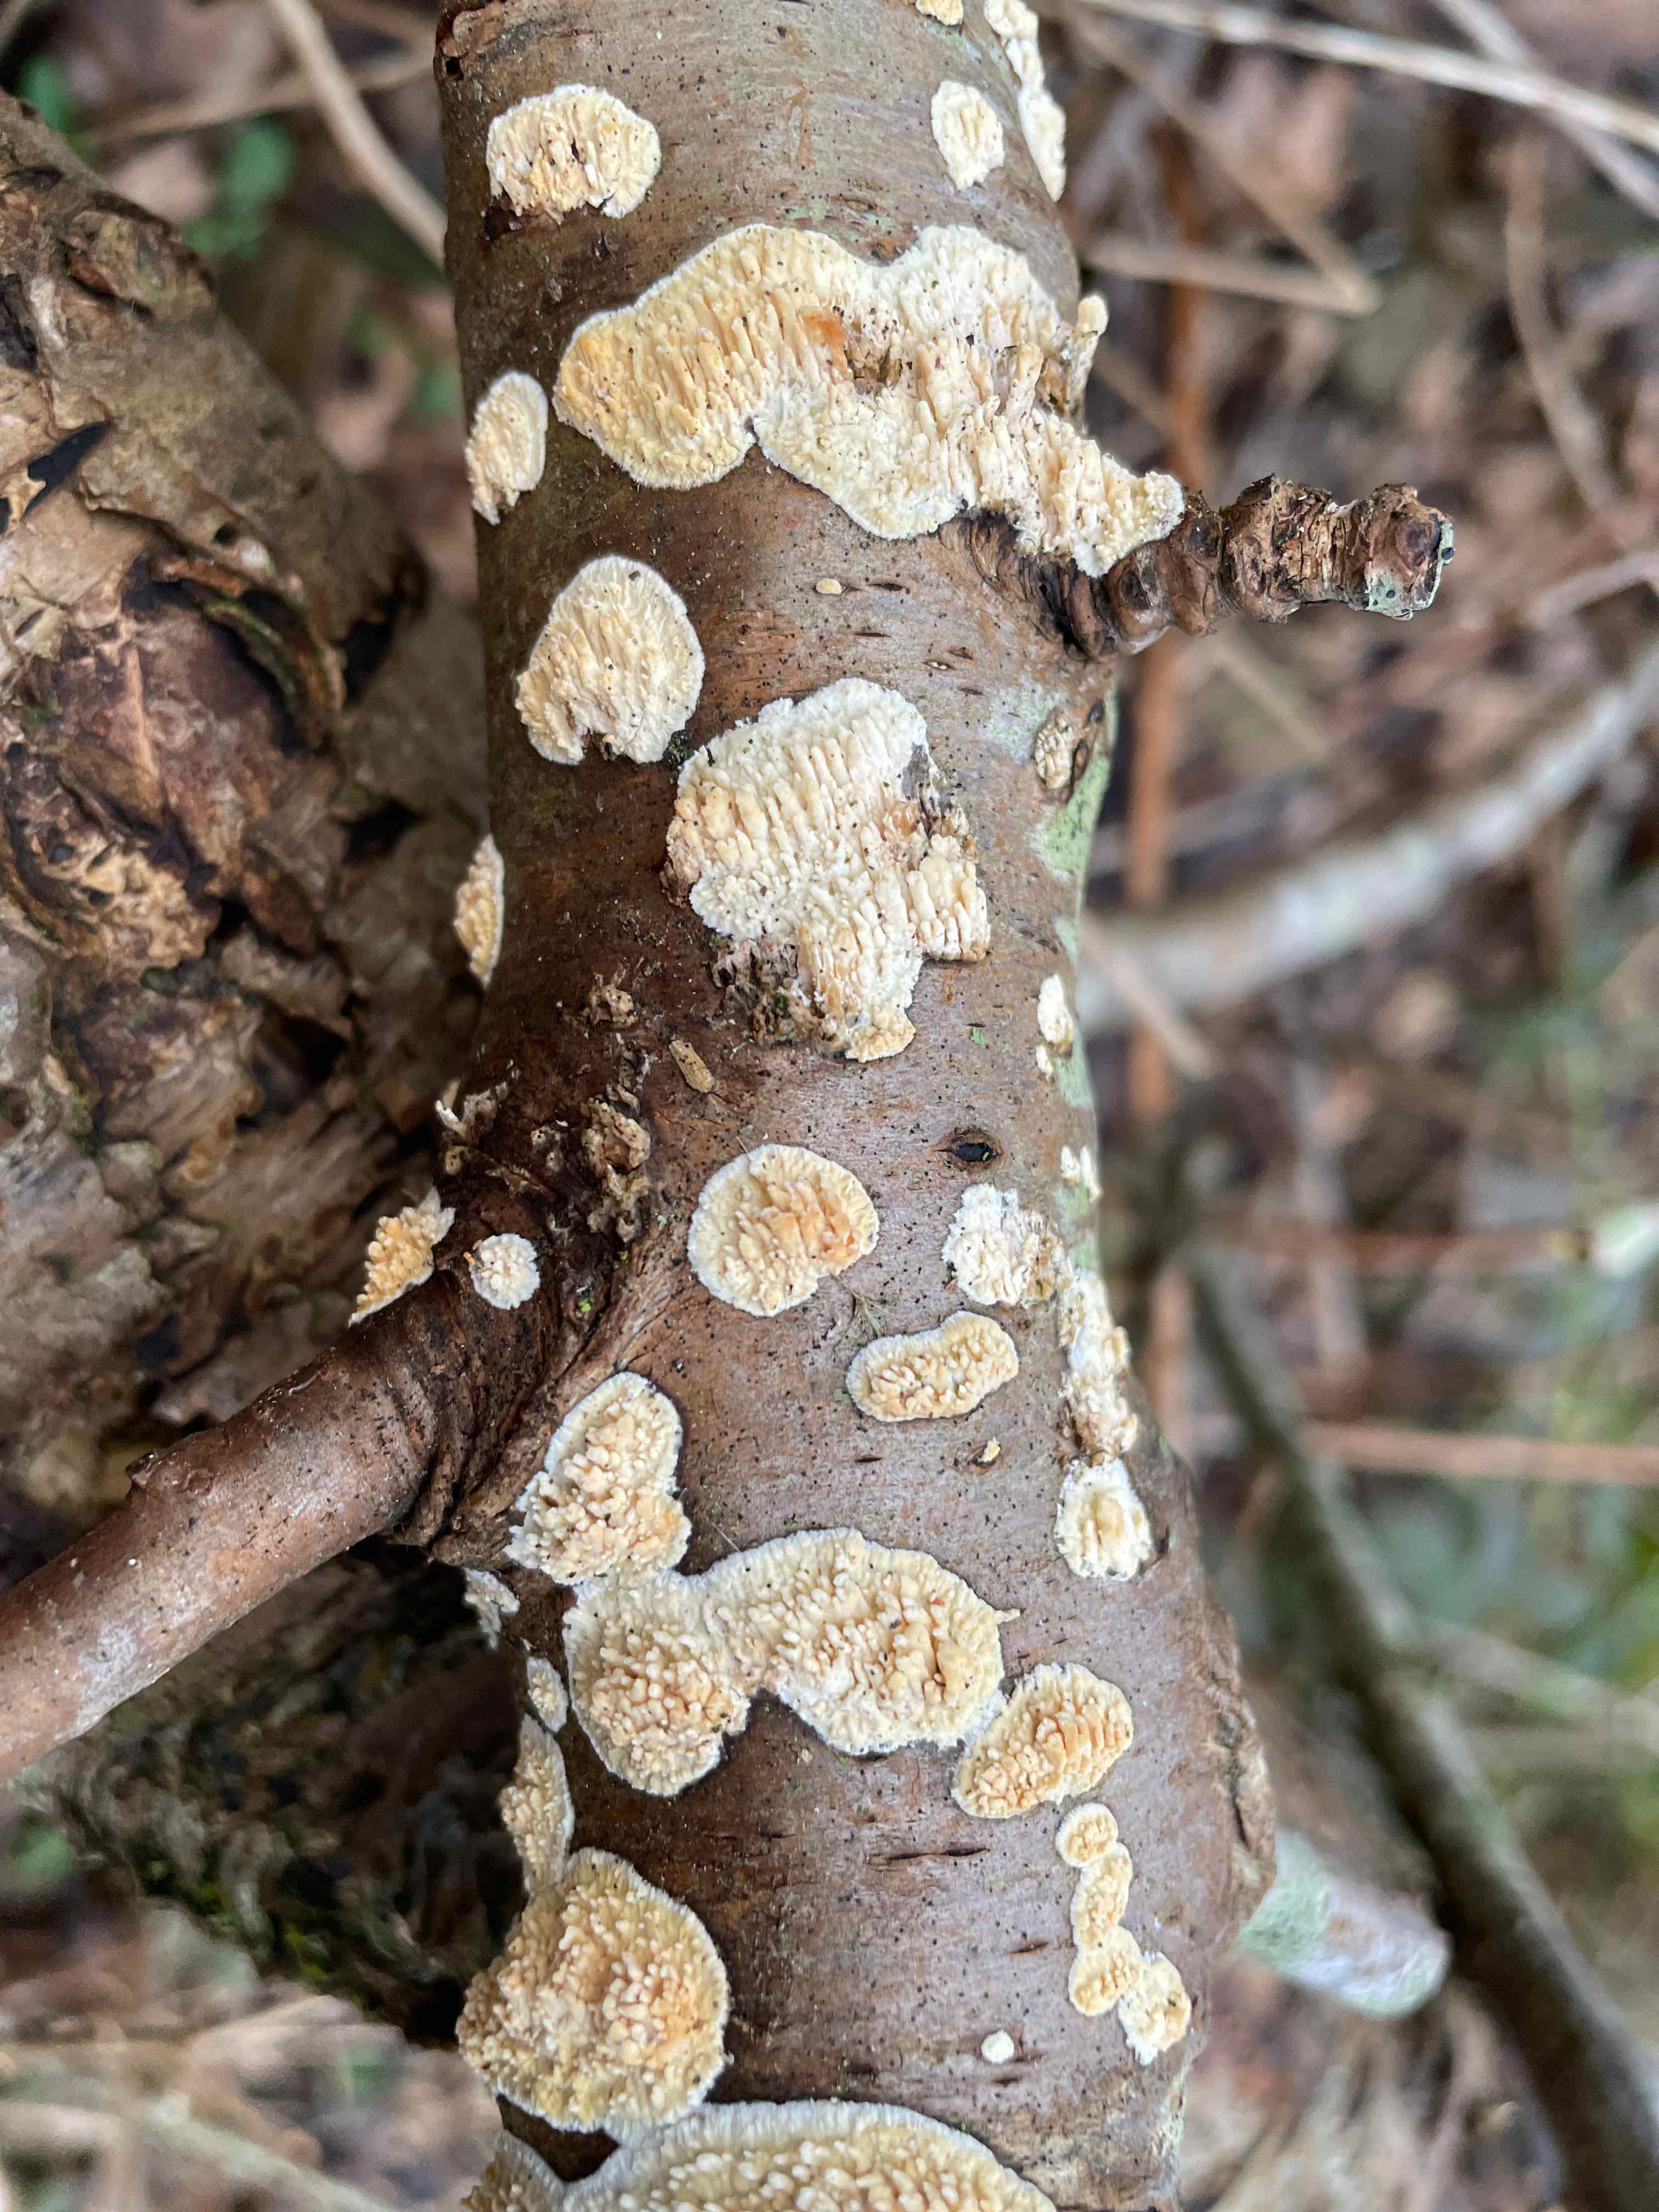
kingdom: Fungi
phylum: Basidiomycota
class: Agaricomycetes
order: Hymenochaetales
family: Schizoporaceae
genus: Xylodon
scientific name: Xylodon radula
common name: grovtandet kalkskind
